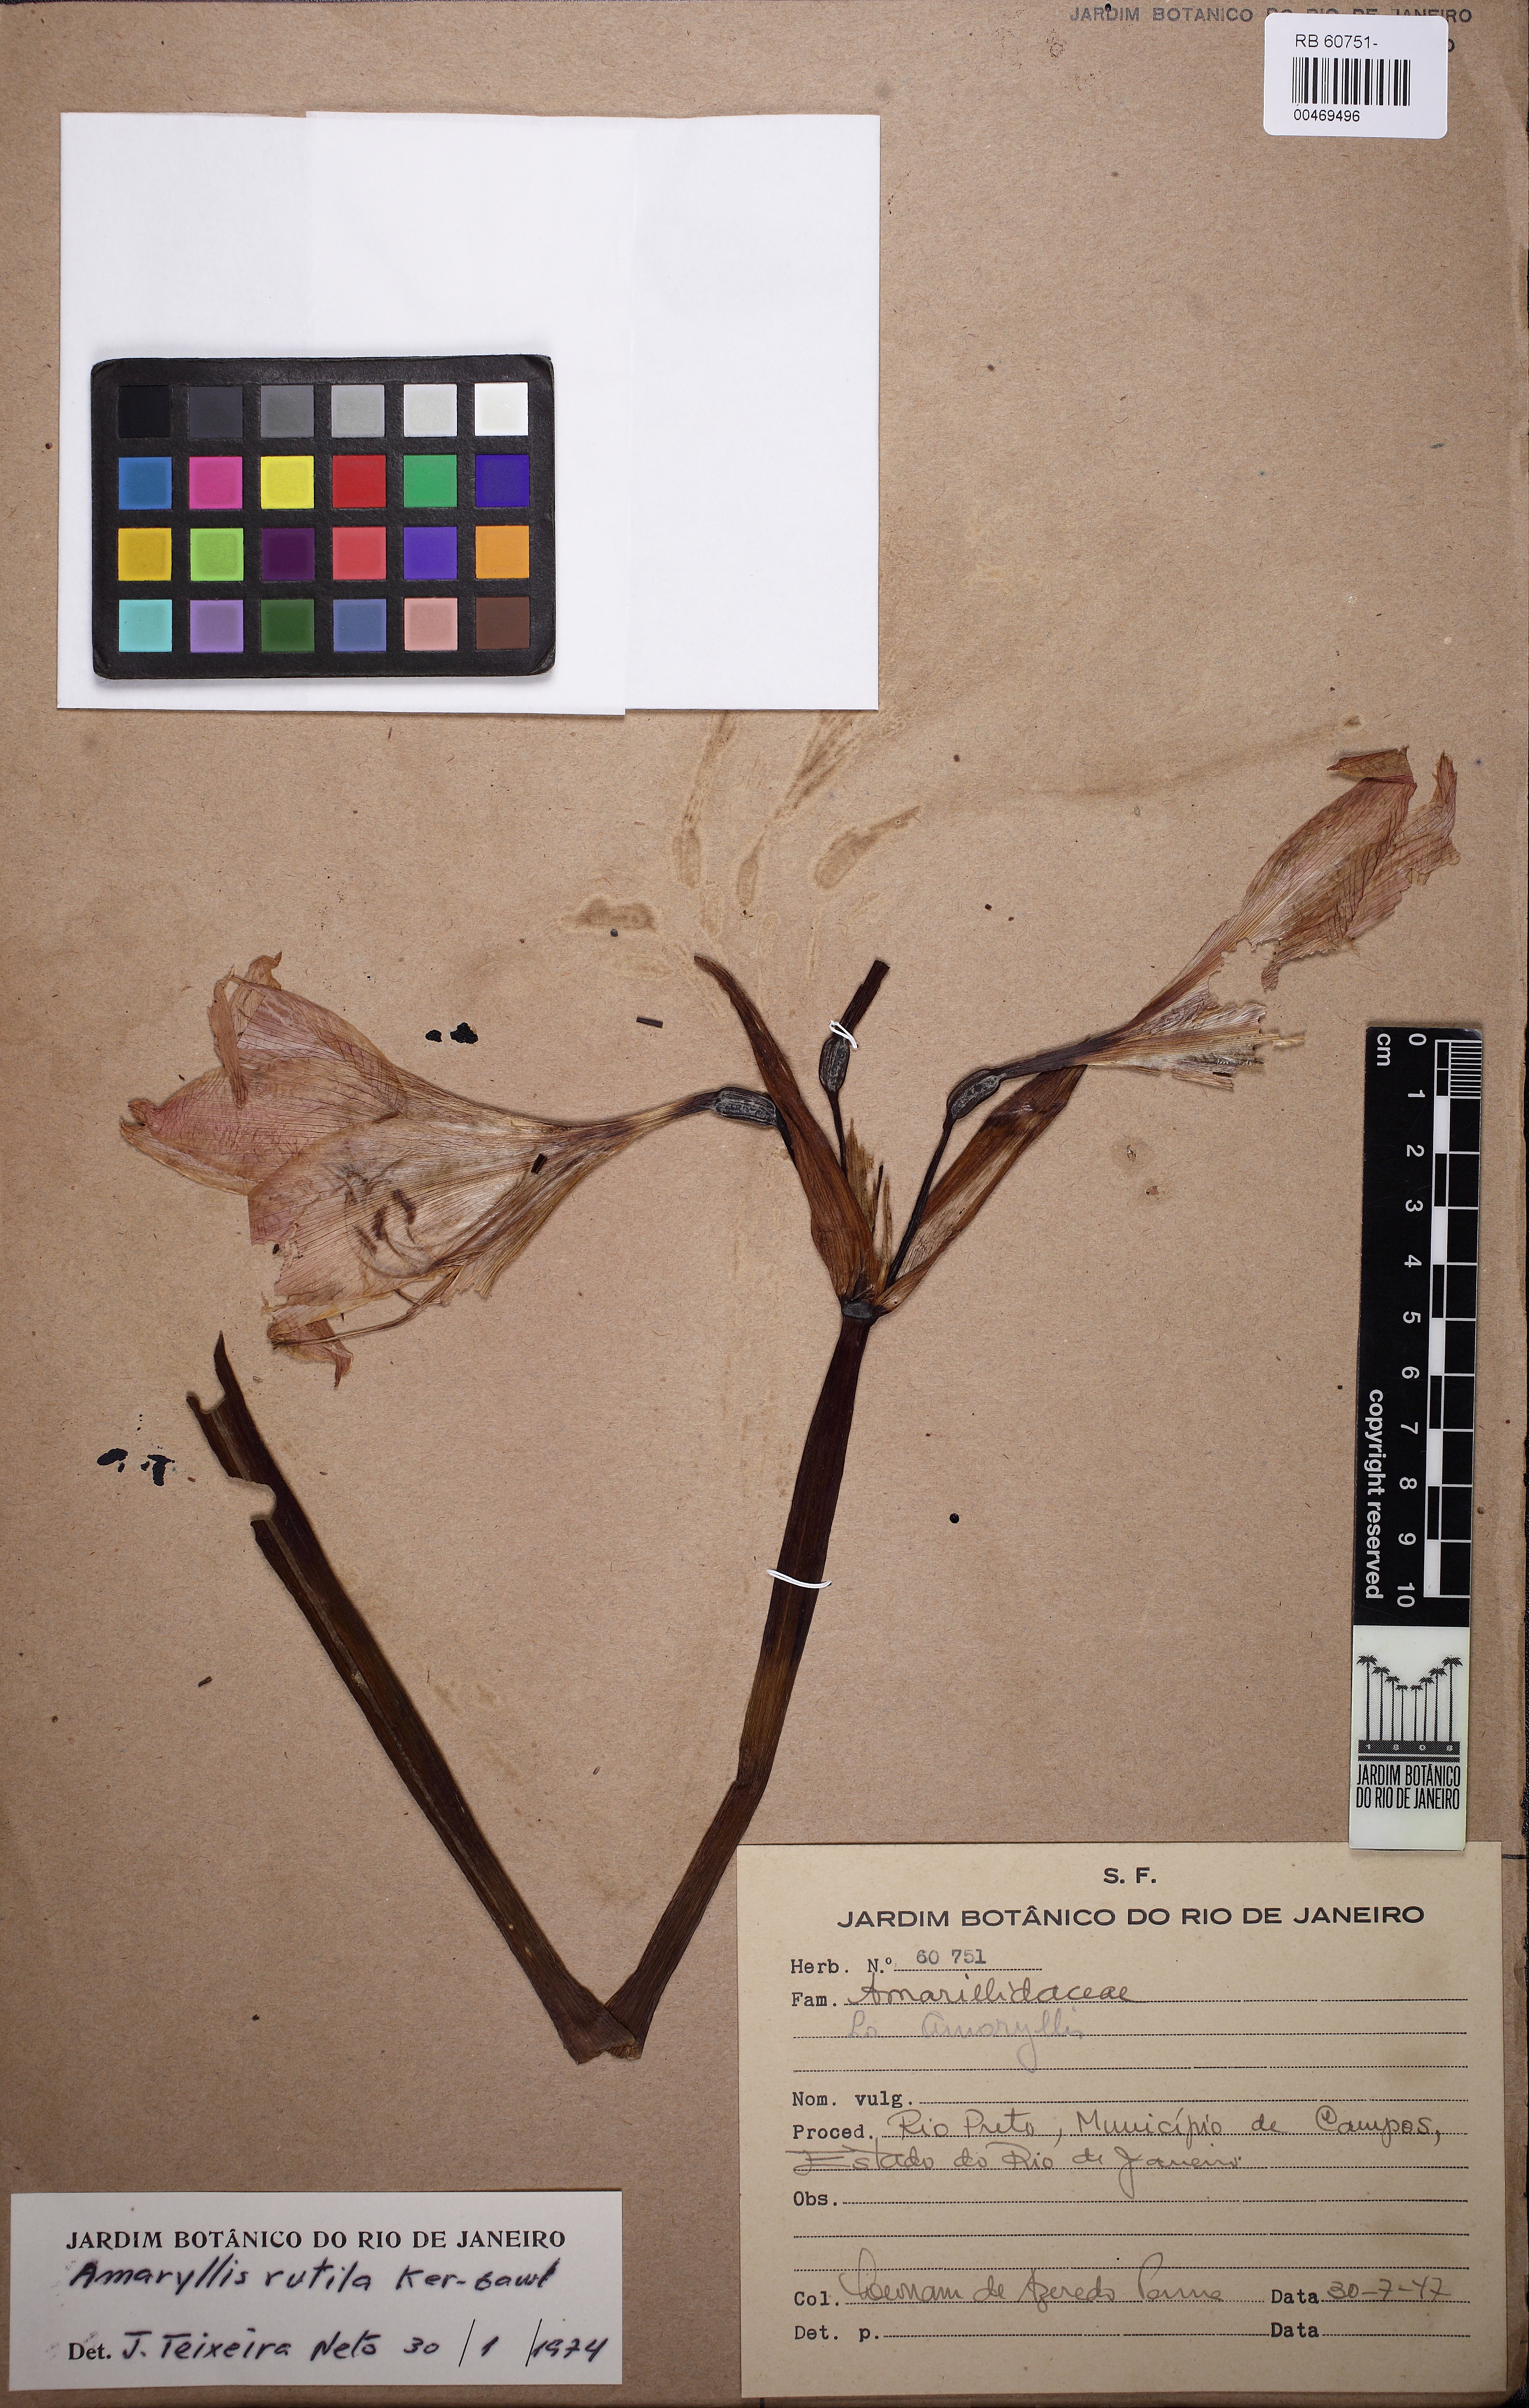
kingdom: Plantae
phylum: Tracheophyta
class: Liliopsida
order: Asparagales
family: Amaryllidaceae
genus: Hippeastrum
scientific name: Hippeastrum reticulatum
